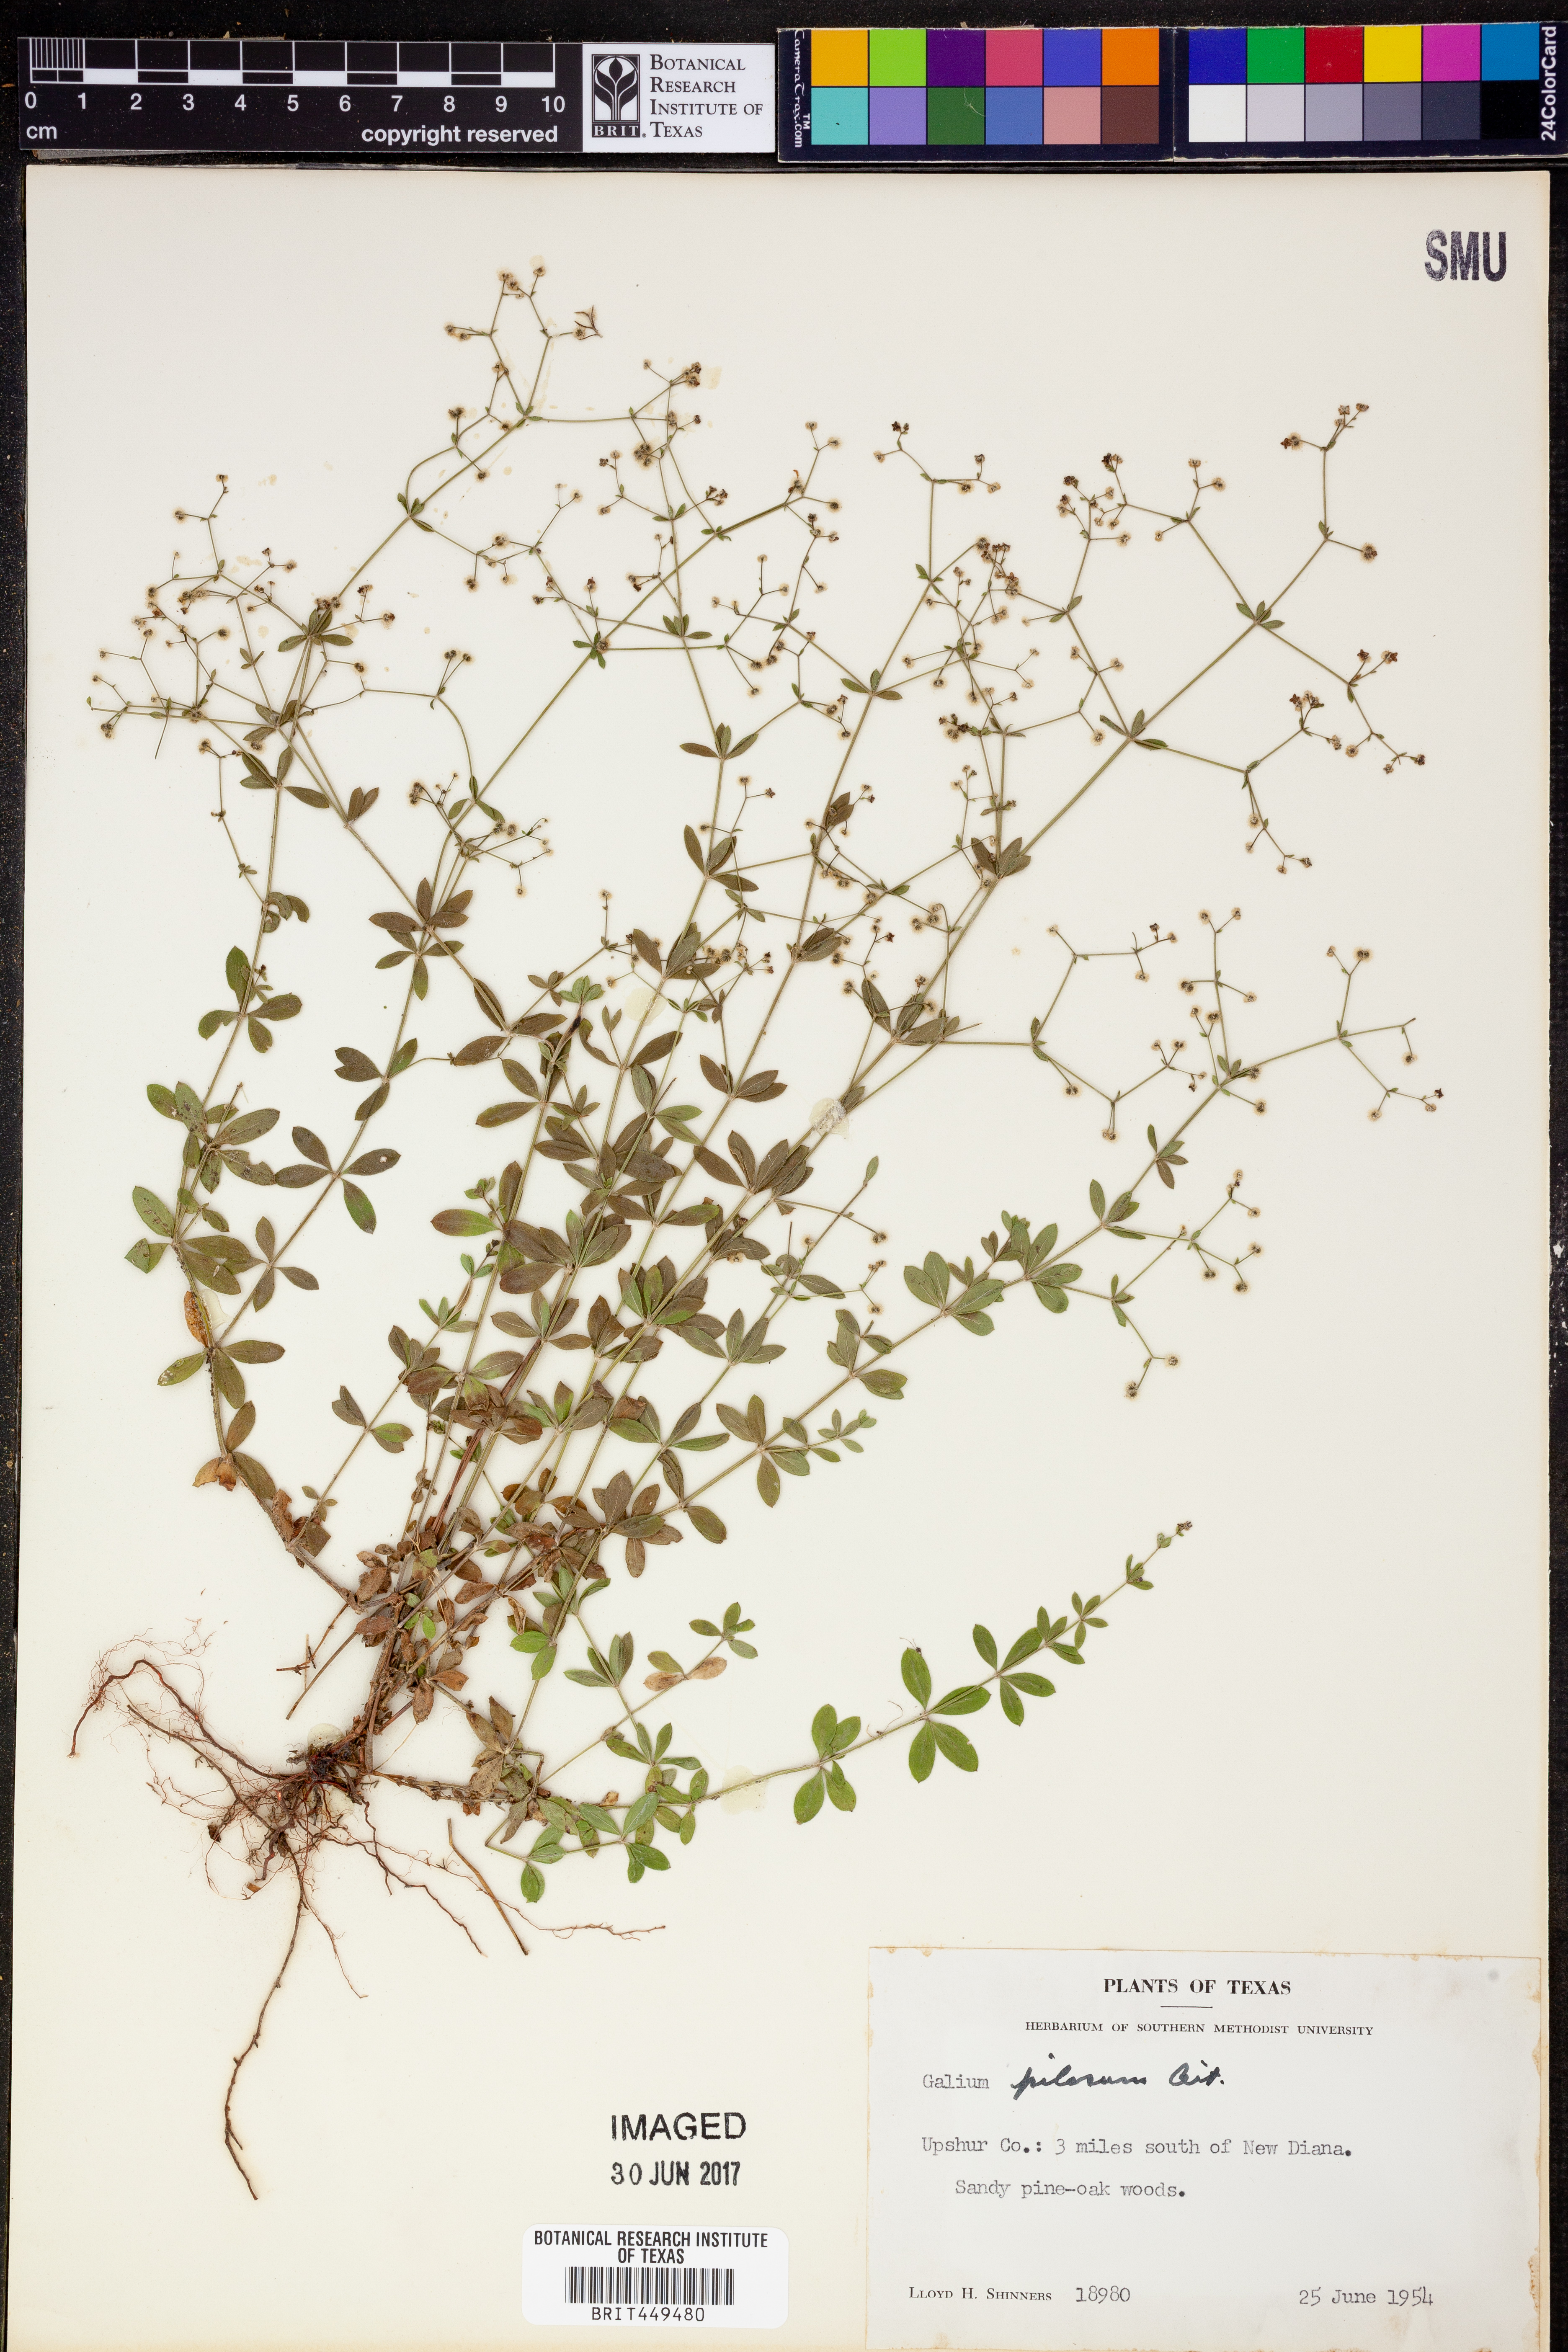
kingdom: Plantae
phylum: Tracheophyta
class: Magnoliopsida
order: Gentianales
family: Rubiaceae
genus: Galium
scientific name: Galium pilosum
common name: Hairy bedstraw
